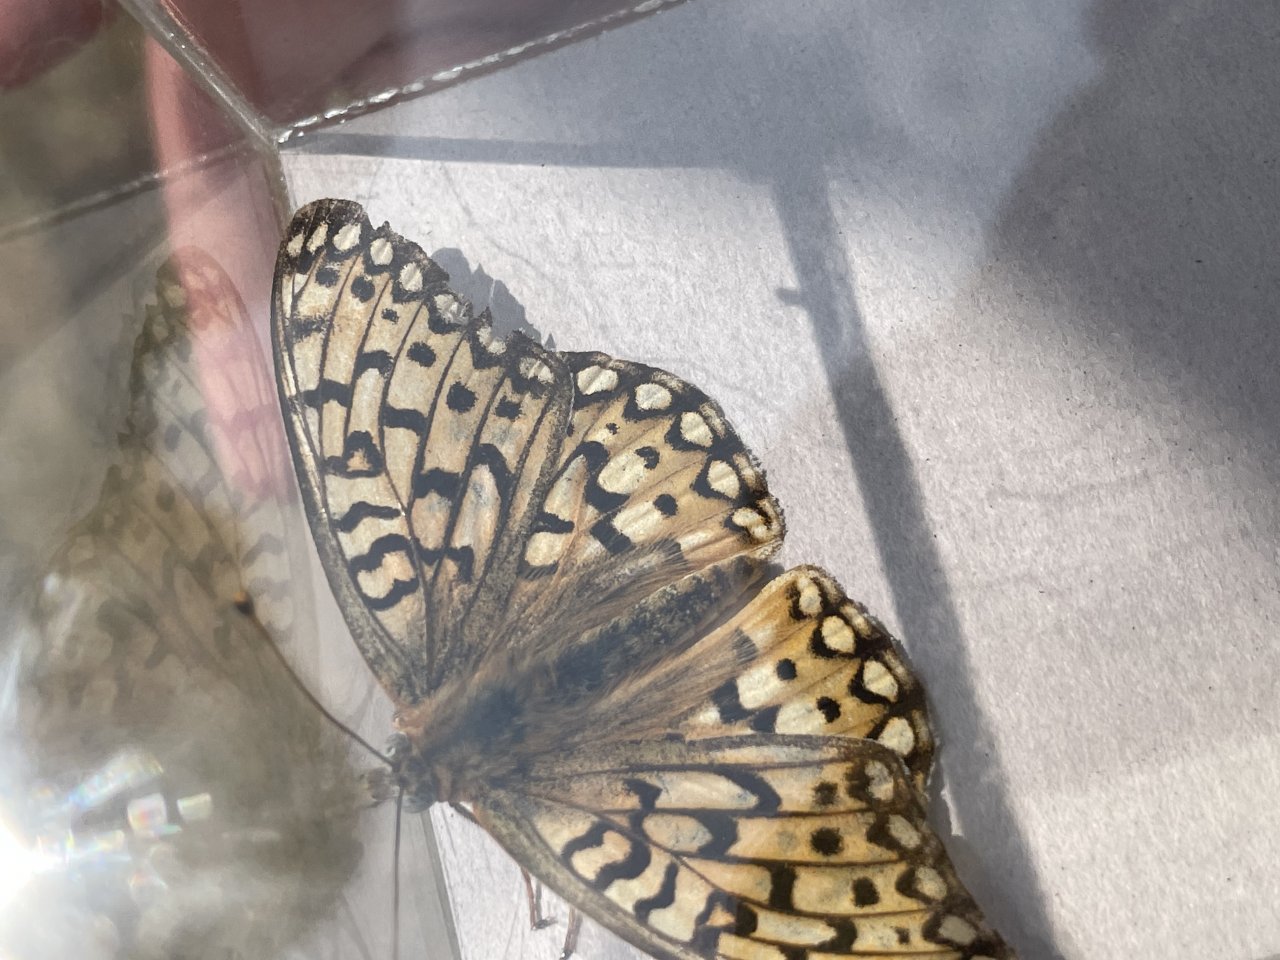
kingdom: Animalia
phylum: Arthropoda
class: Insecta
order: Lepidoptera
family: Nymphalidae
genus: Speyeria
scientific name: Speyeria callippe
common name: Callippe Fritillary
